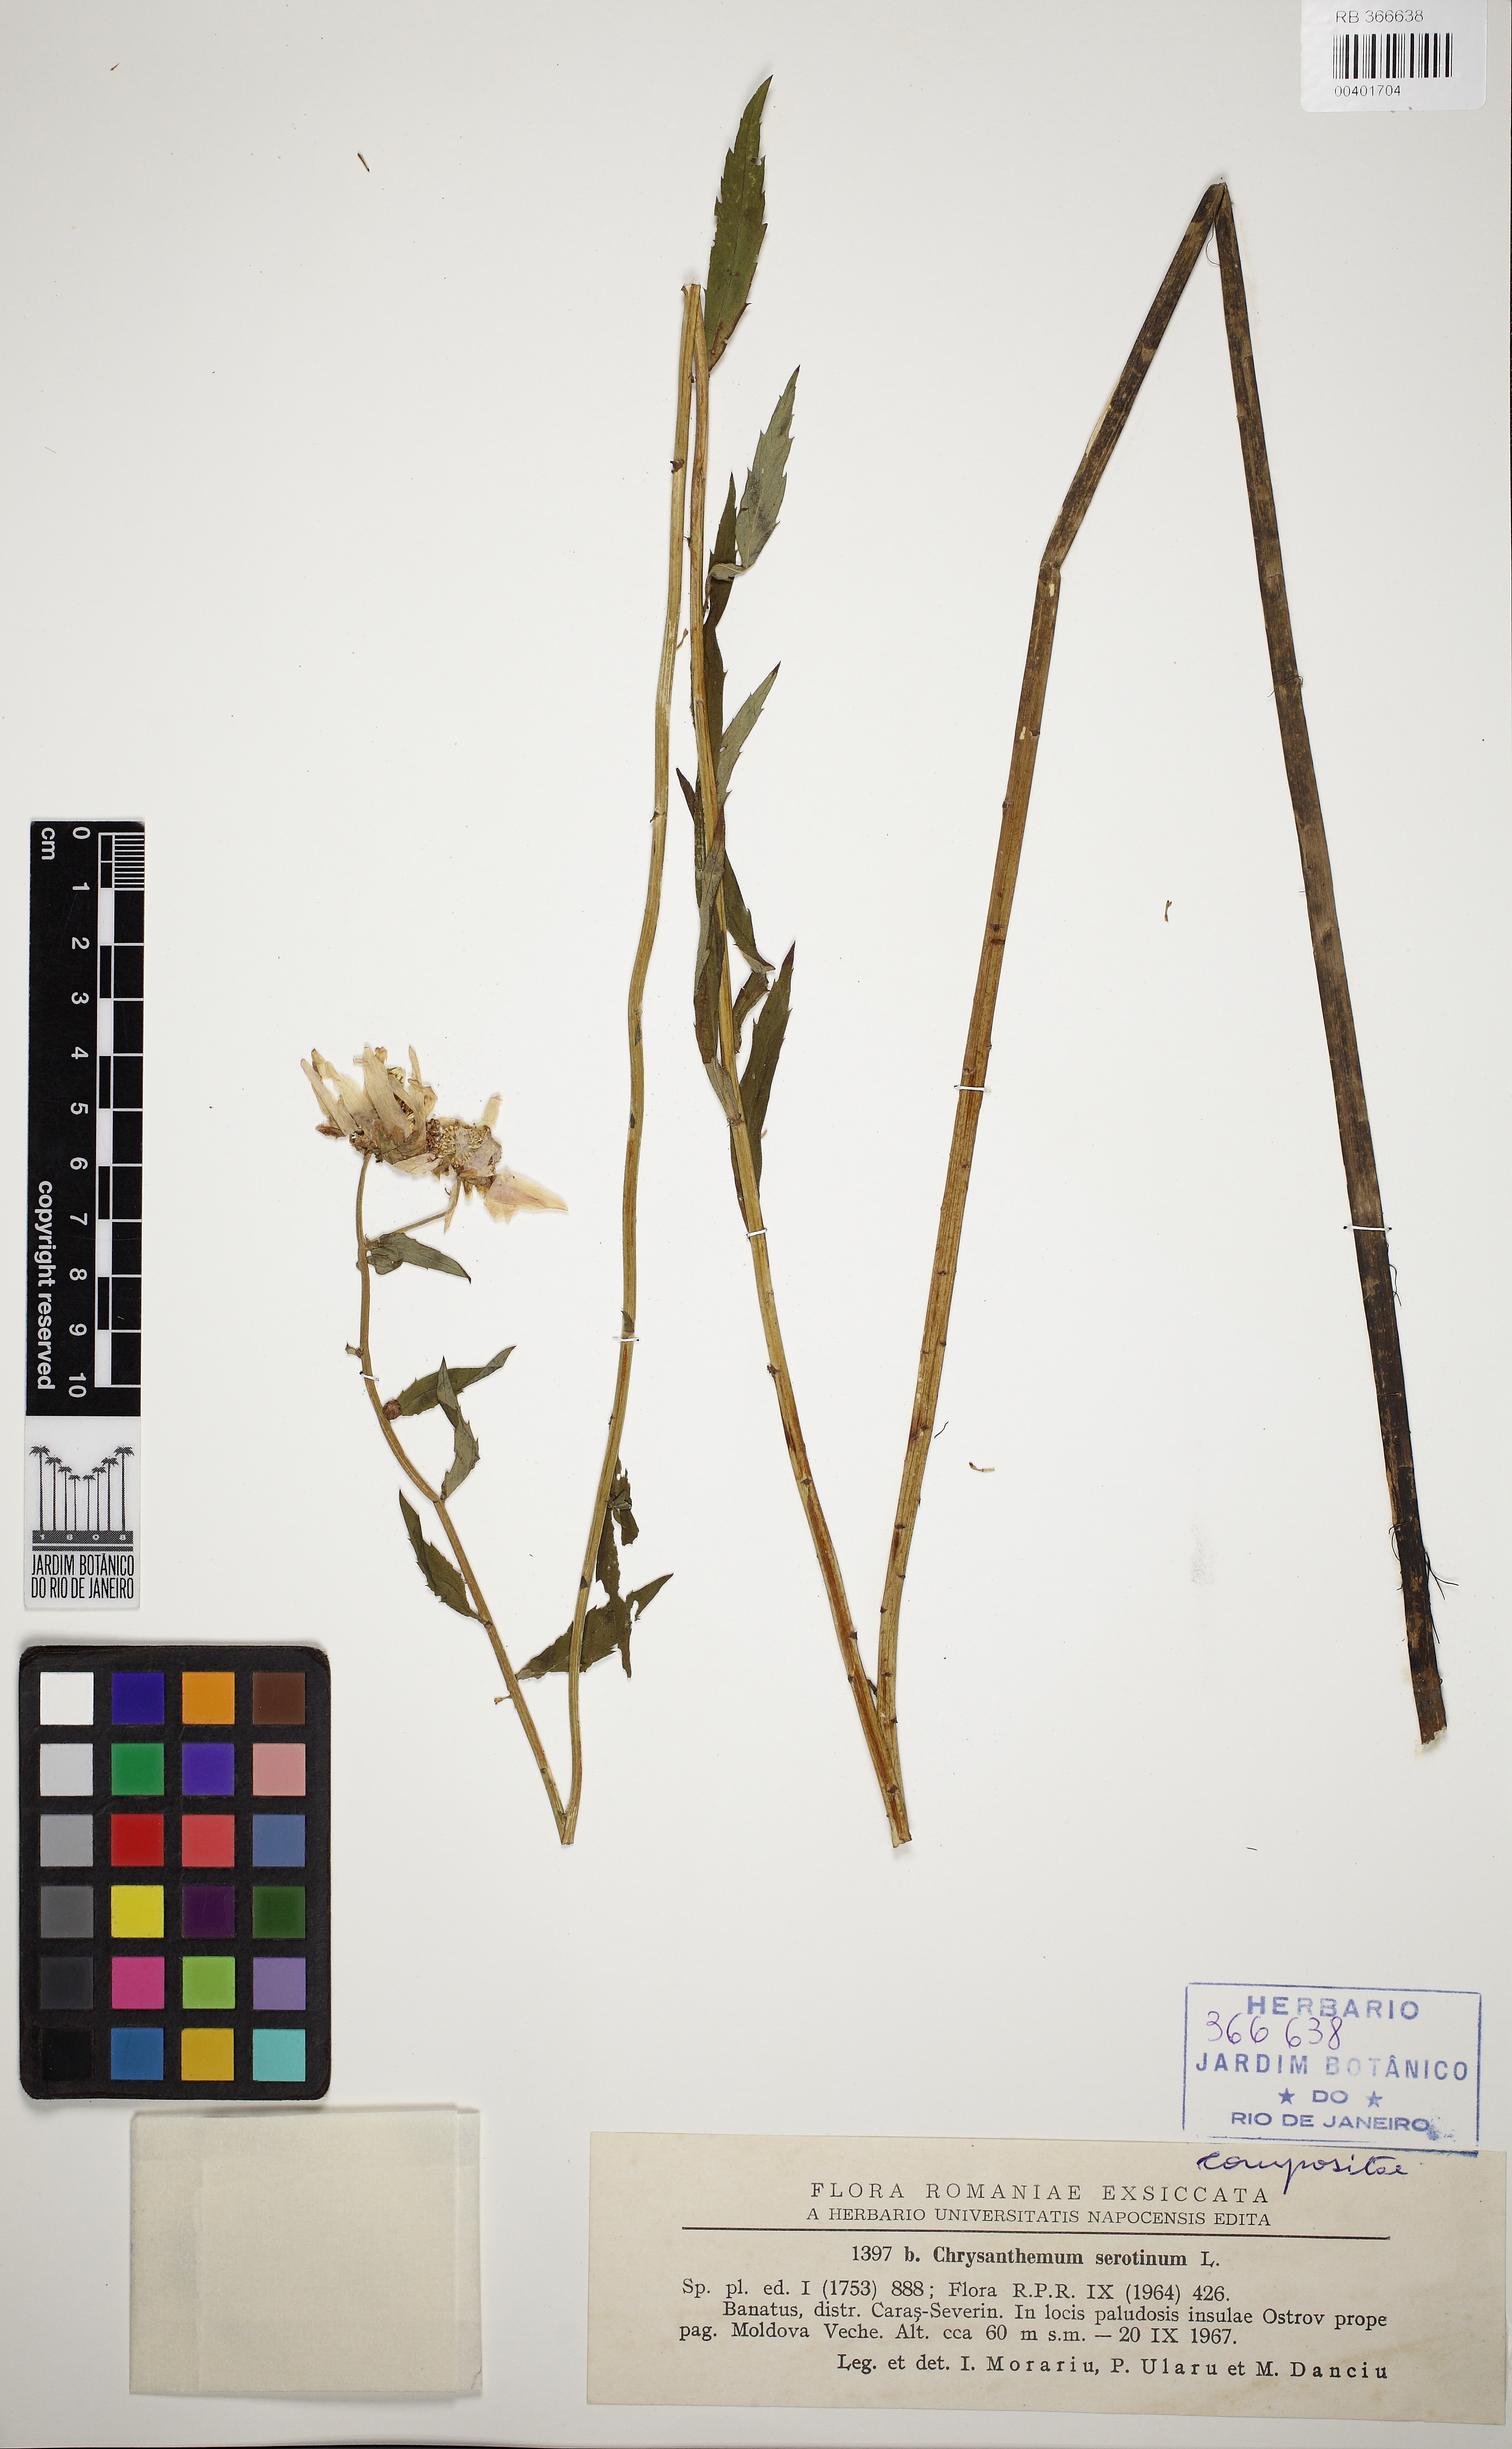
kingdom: Plantae
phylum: Tracheophyta
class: Magnoliopsida
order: Asterales
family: Asteraceae
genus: Leucanthemella
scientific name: Leucanthemella serotina
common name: Autumn oxeye
